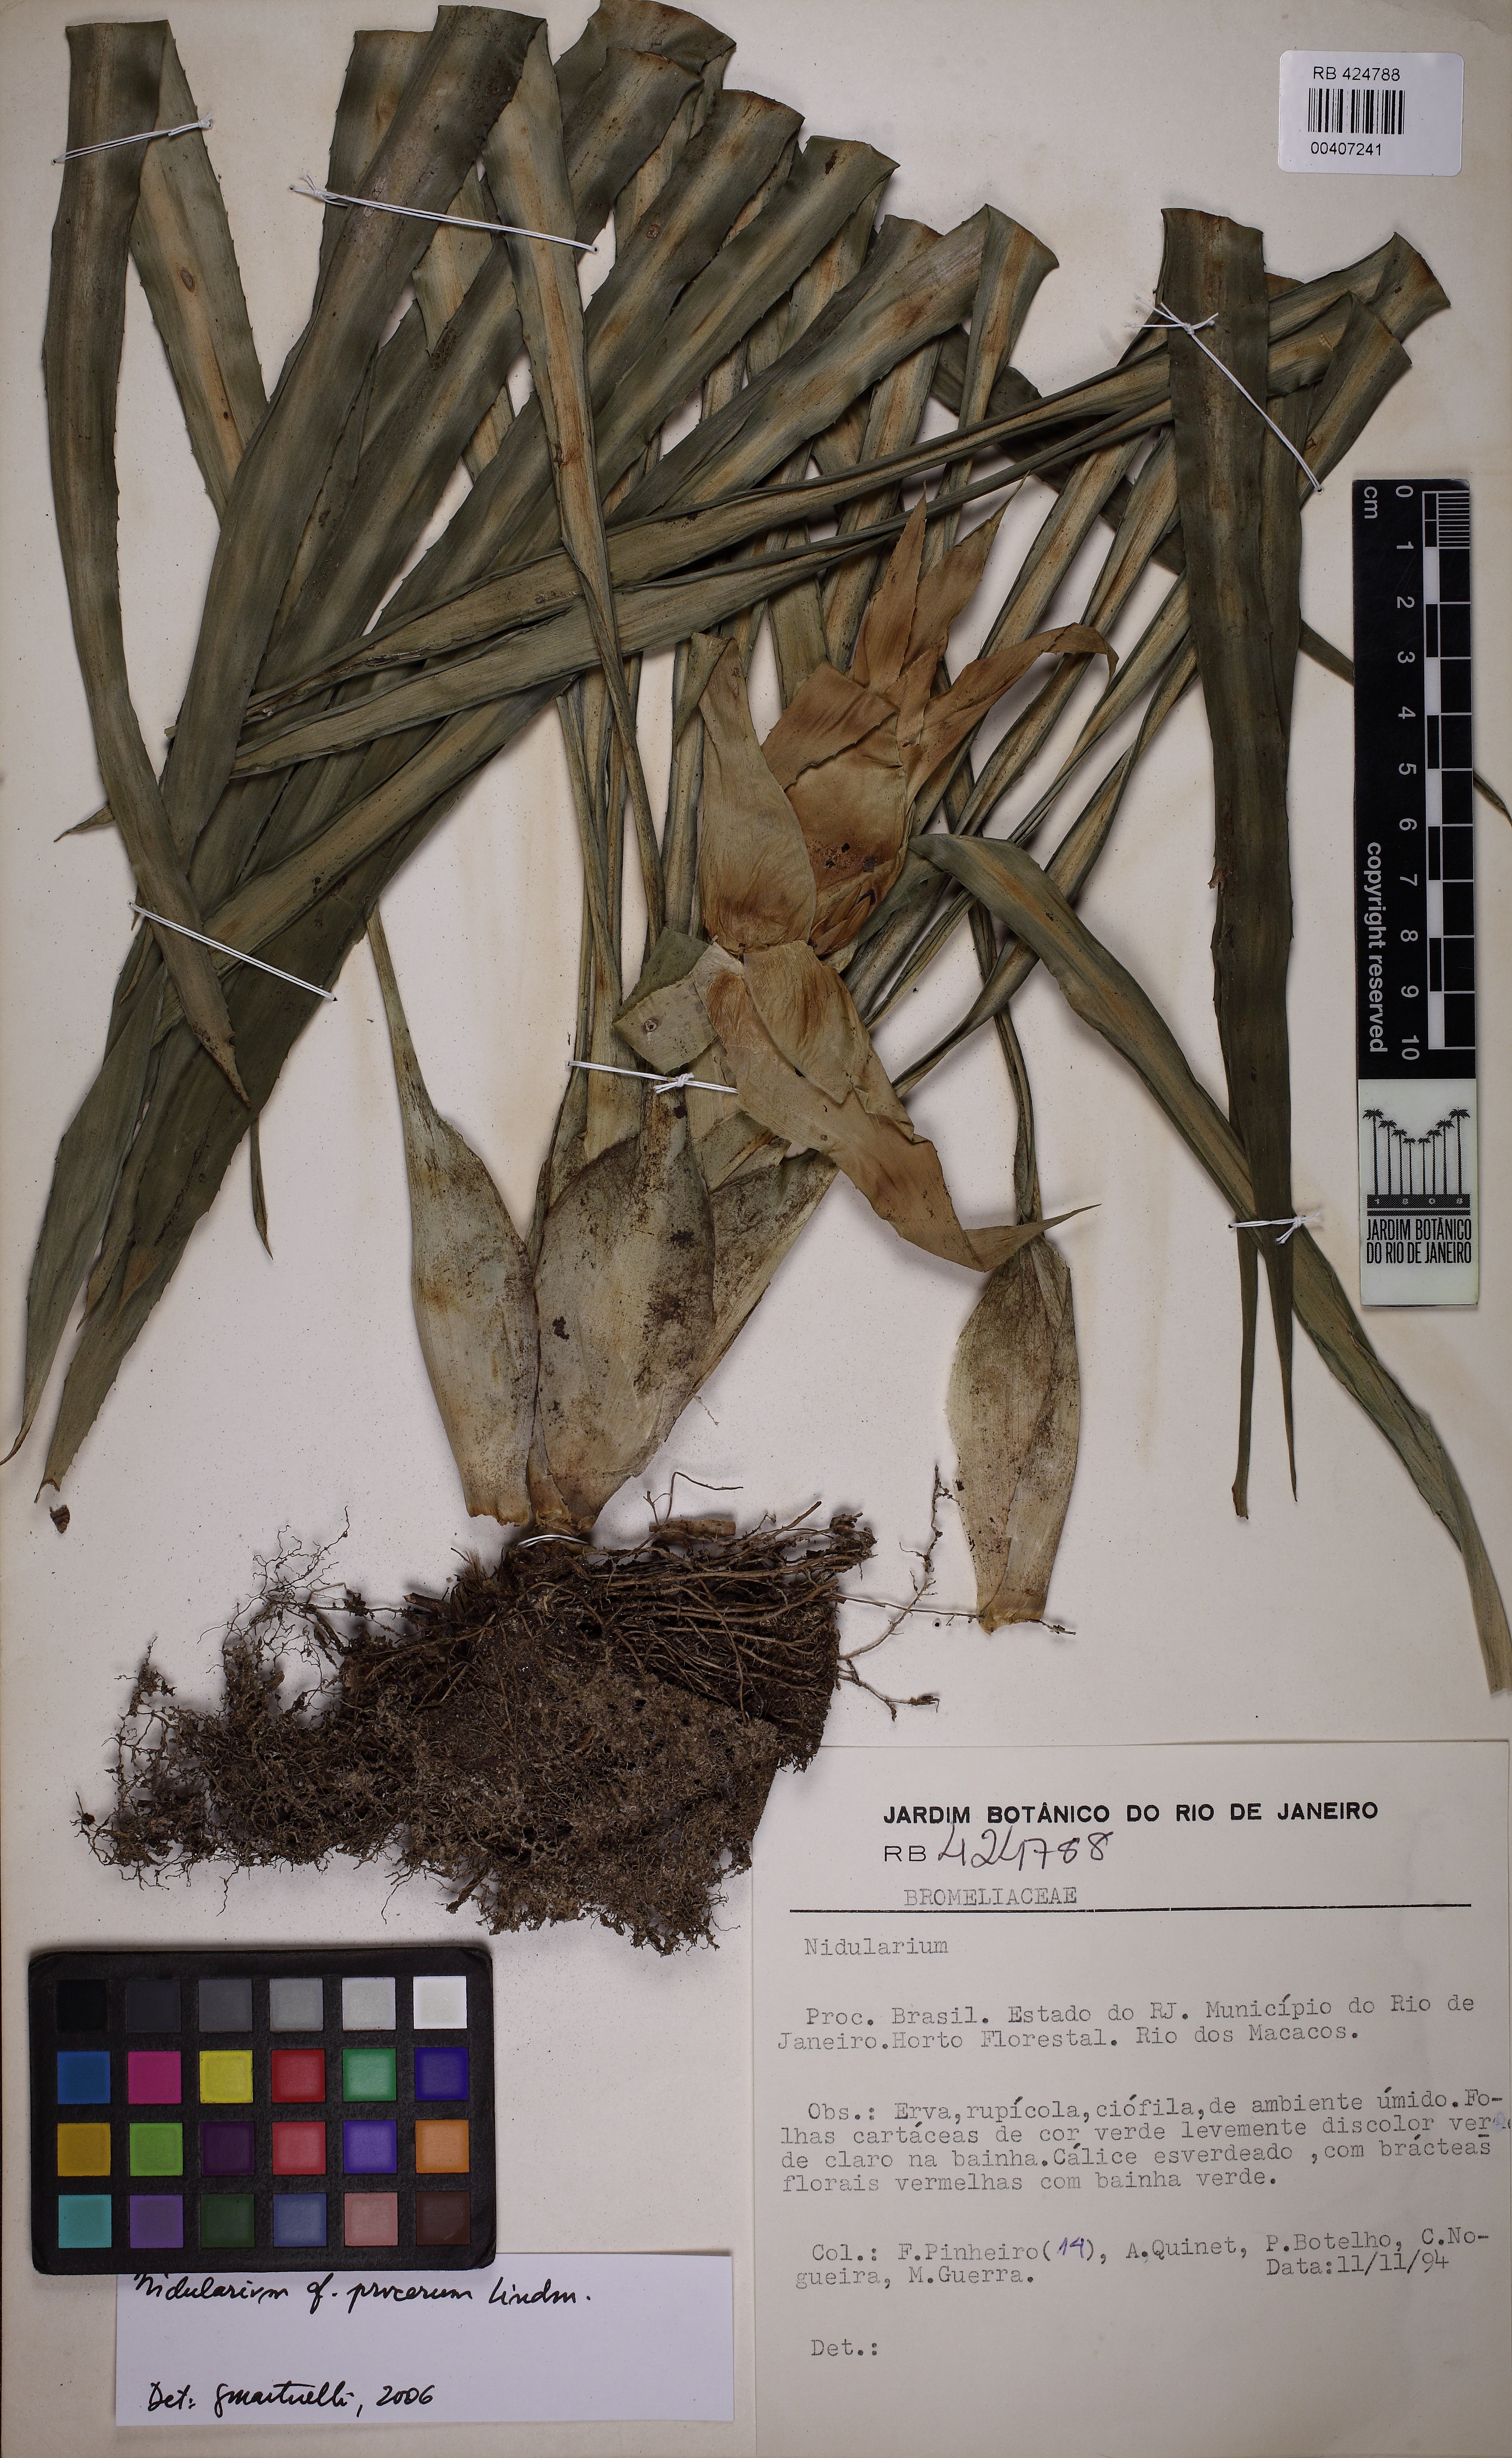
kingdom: Plantae
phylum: Tracheophyta
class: Liliopsida
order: Poales
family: Bromeliaceae
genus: Nidularium
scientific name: Nidularium procerum
